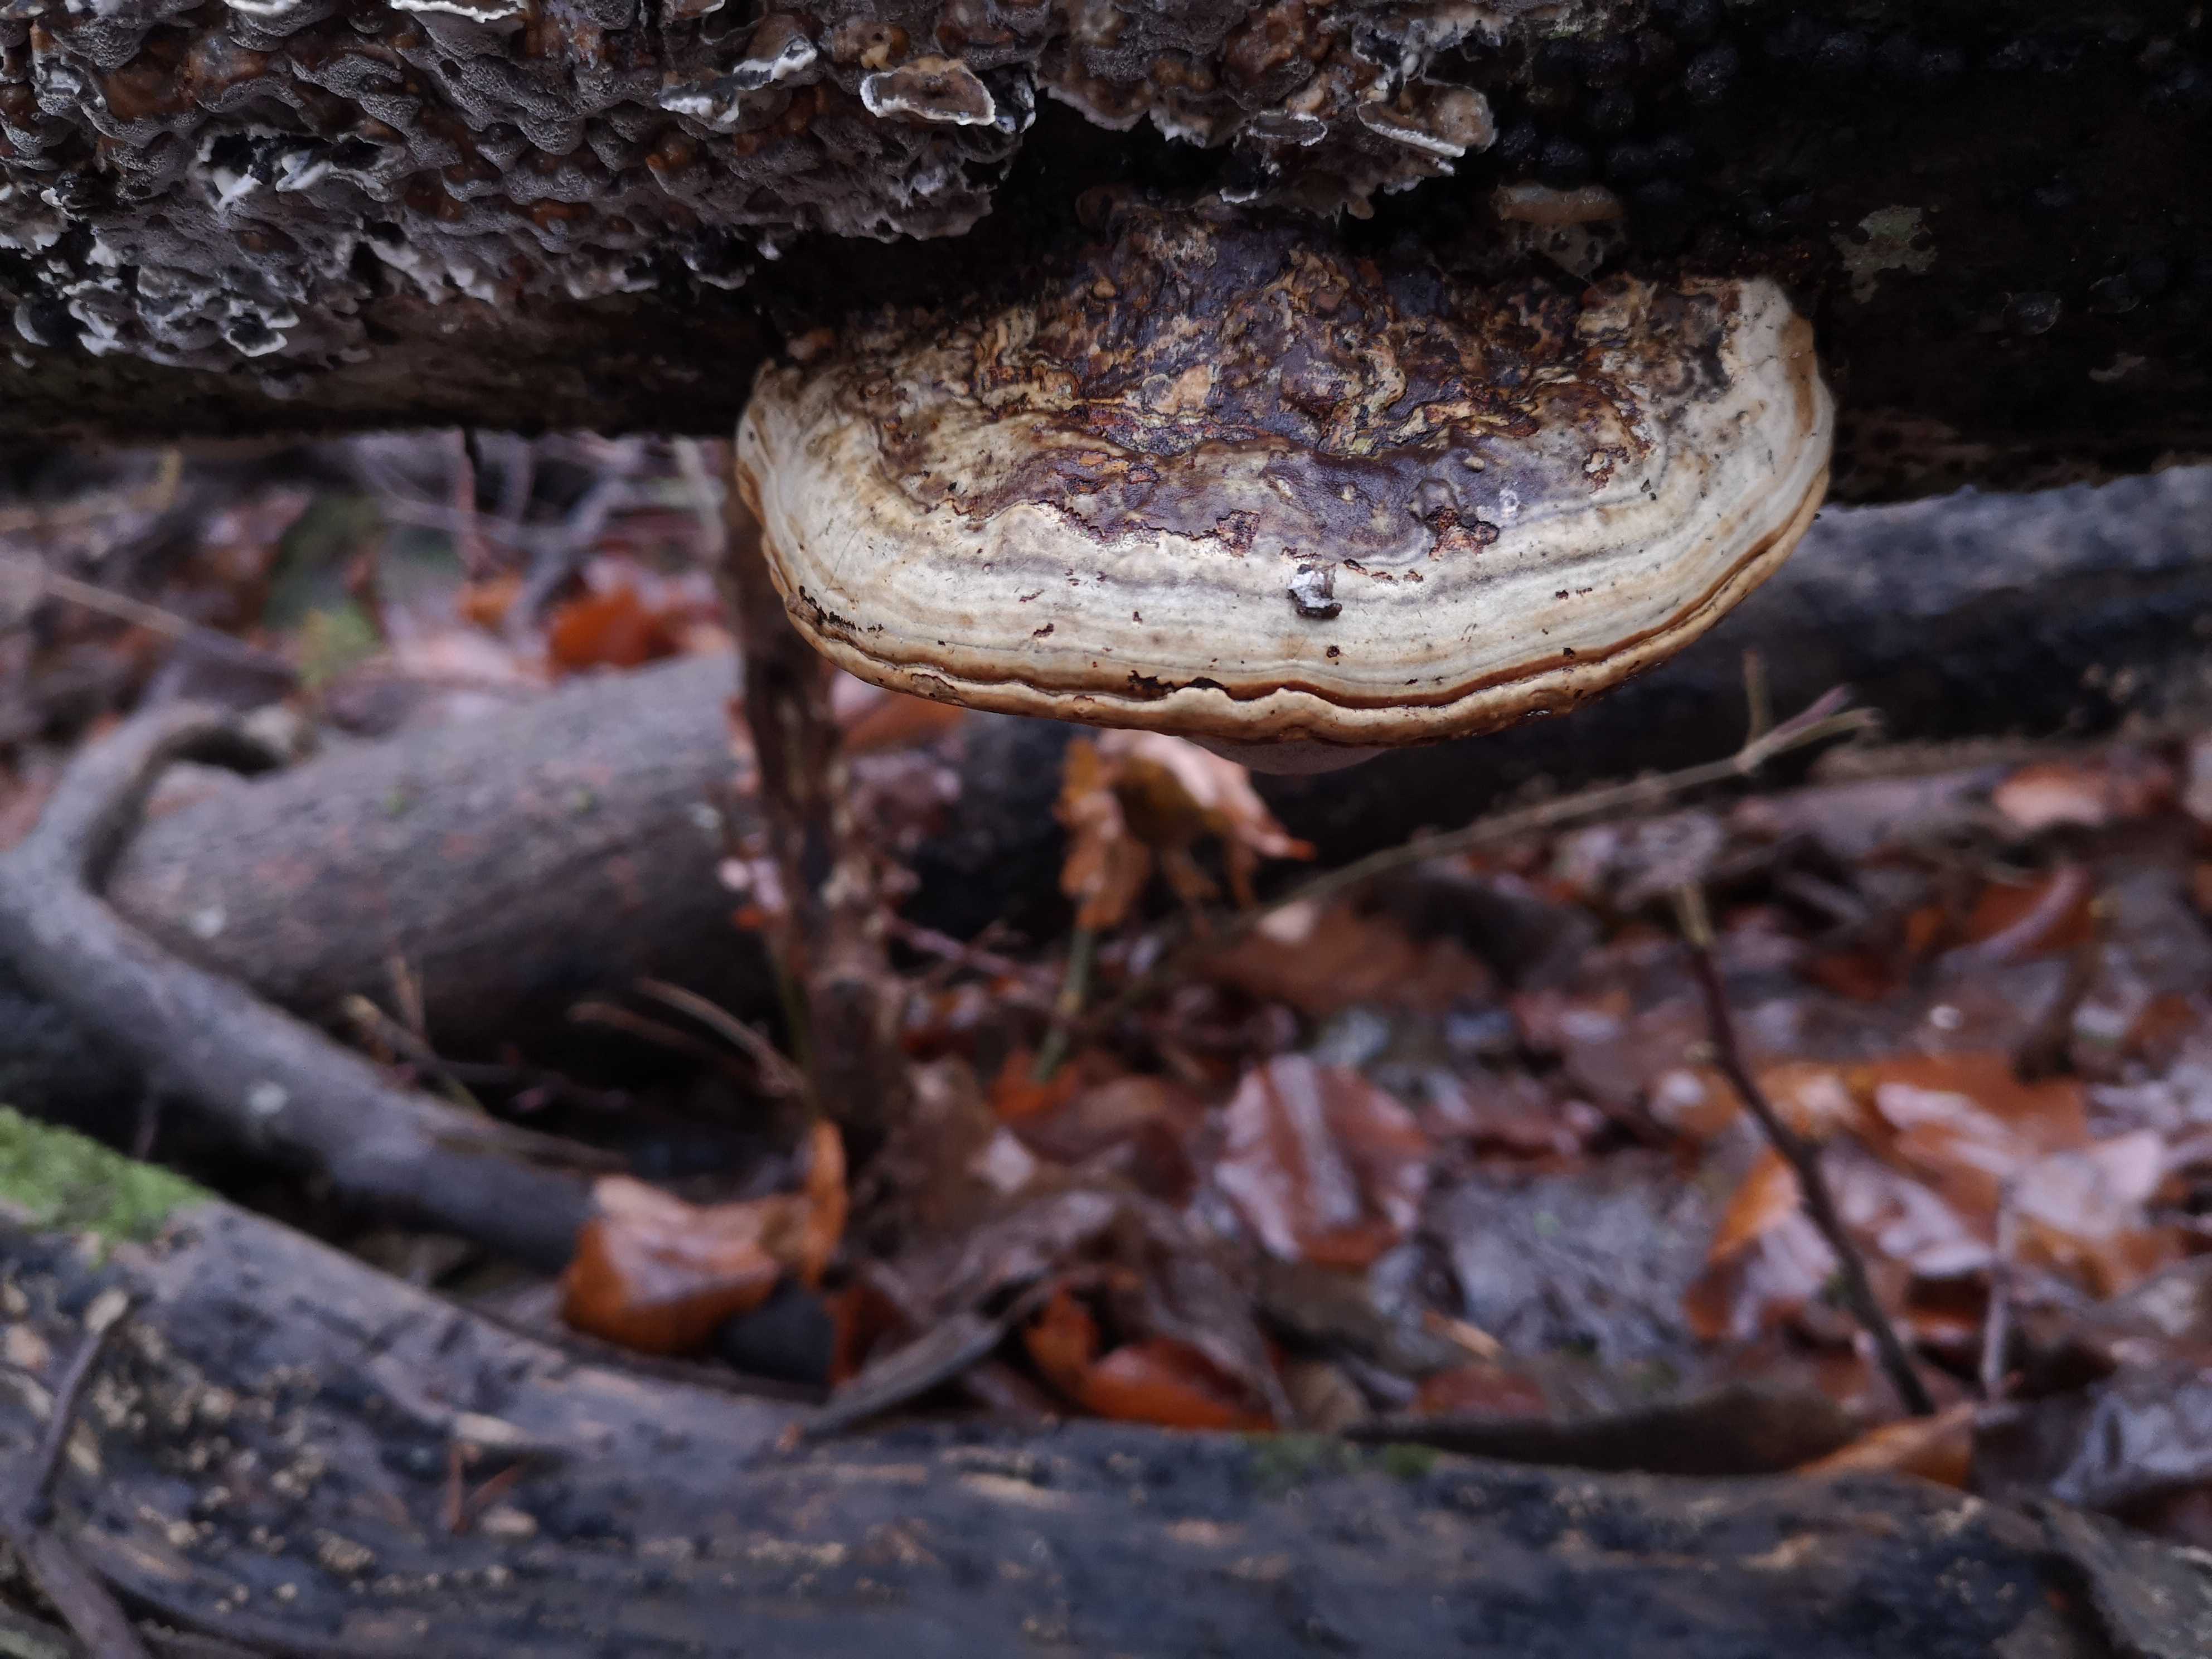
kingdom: Fungi
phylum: Basidiomycota
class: Agaricomycetes
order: Polyporales
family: Polyporaceae
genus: Fomes
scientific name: Fomes fomentarius
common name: tøndersvamp
